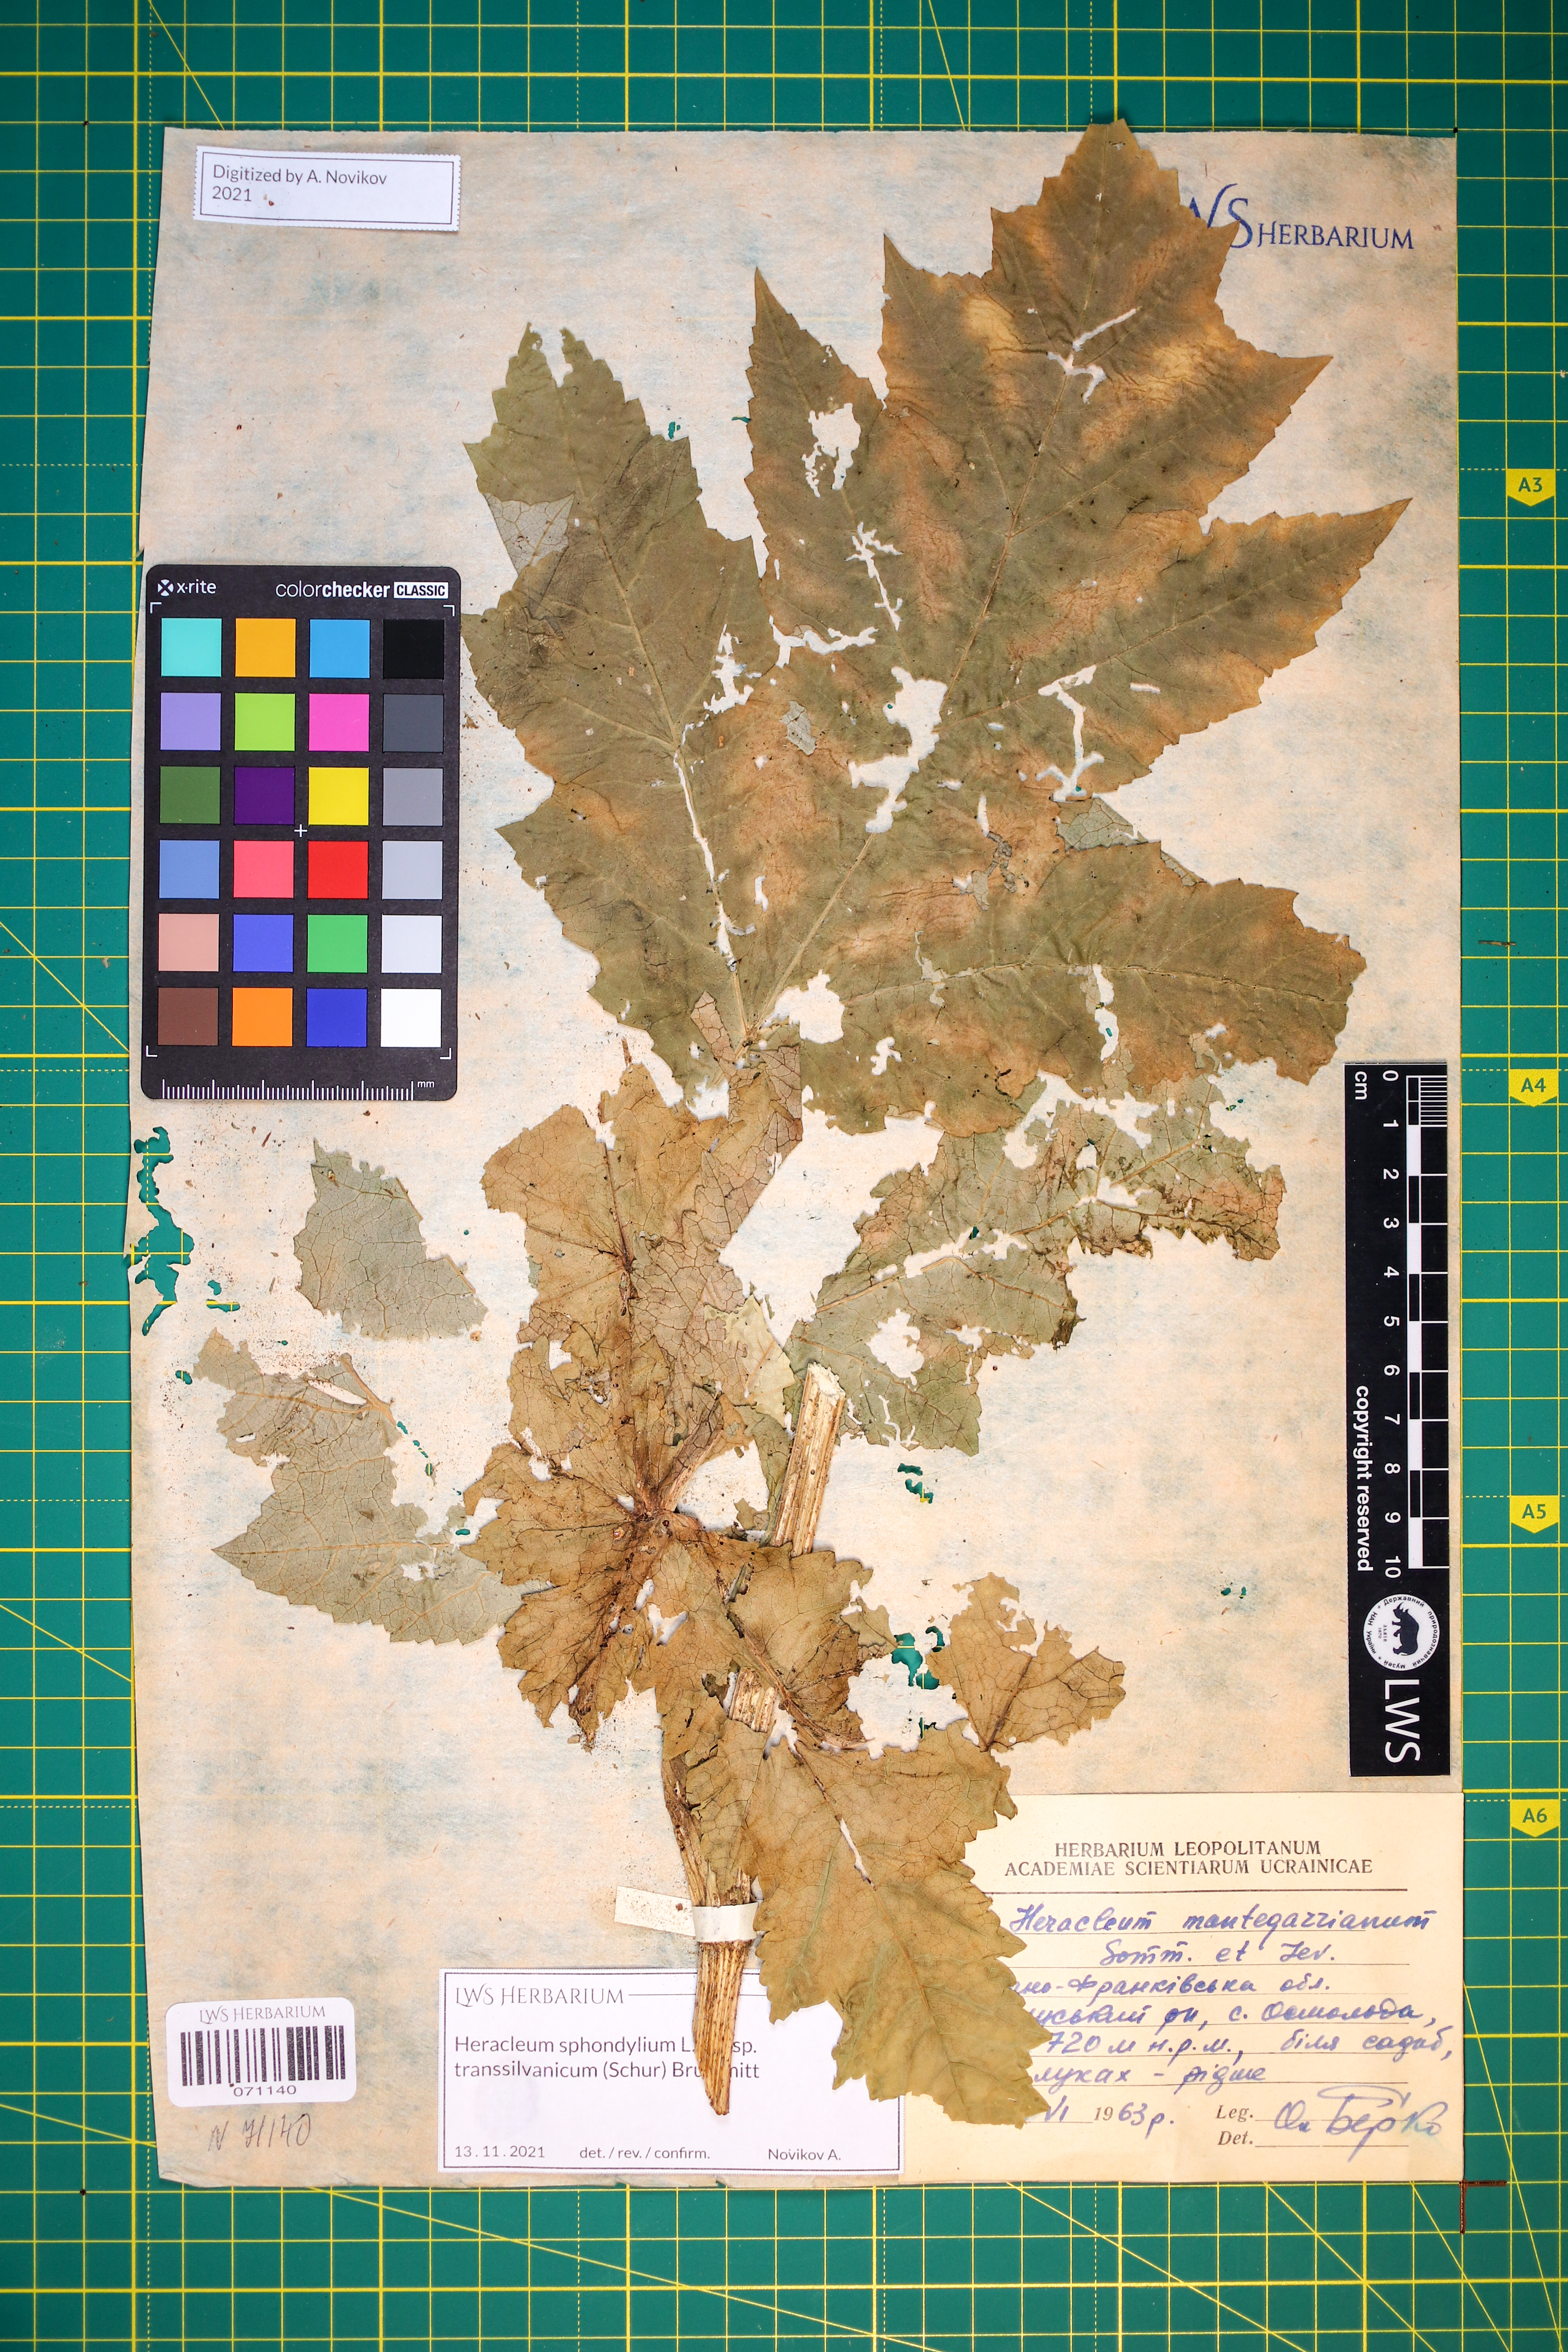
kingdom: Plantae
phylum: Tracheophyta
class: Magnoliopsida
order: Apiales
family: Apiaceae
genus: Heracleum
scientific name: Heracleum sphondylium
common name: Hogweed
